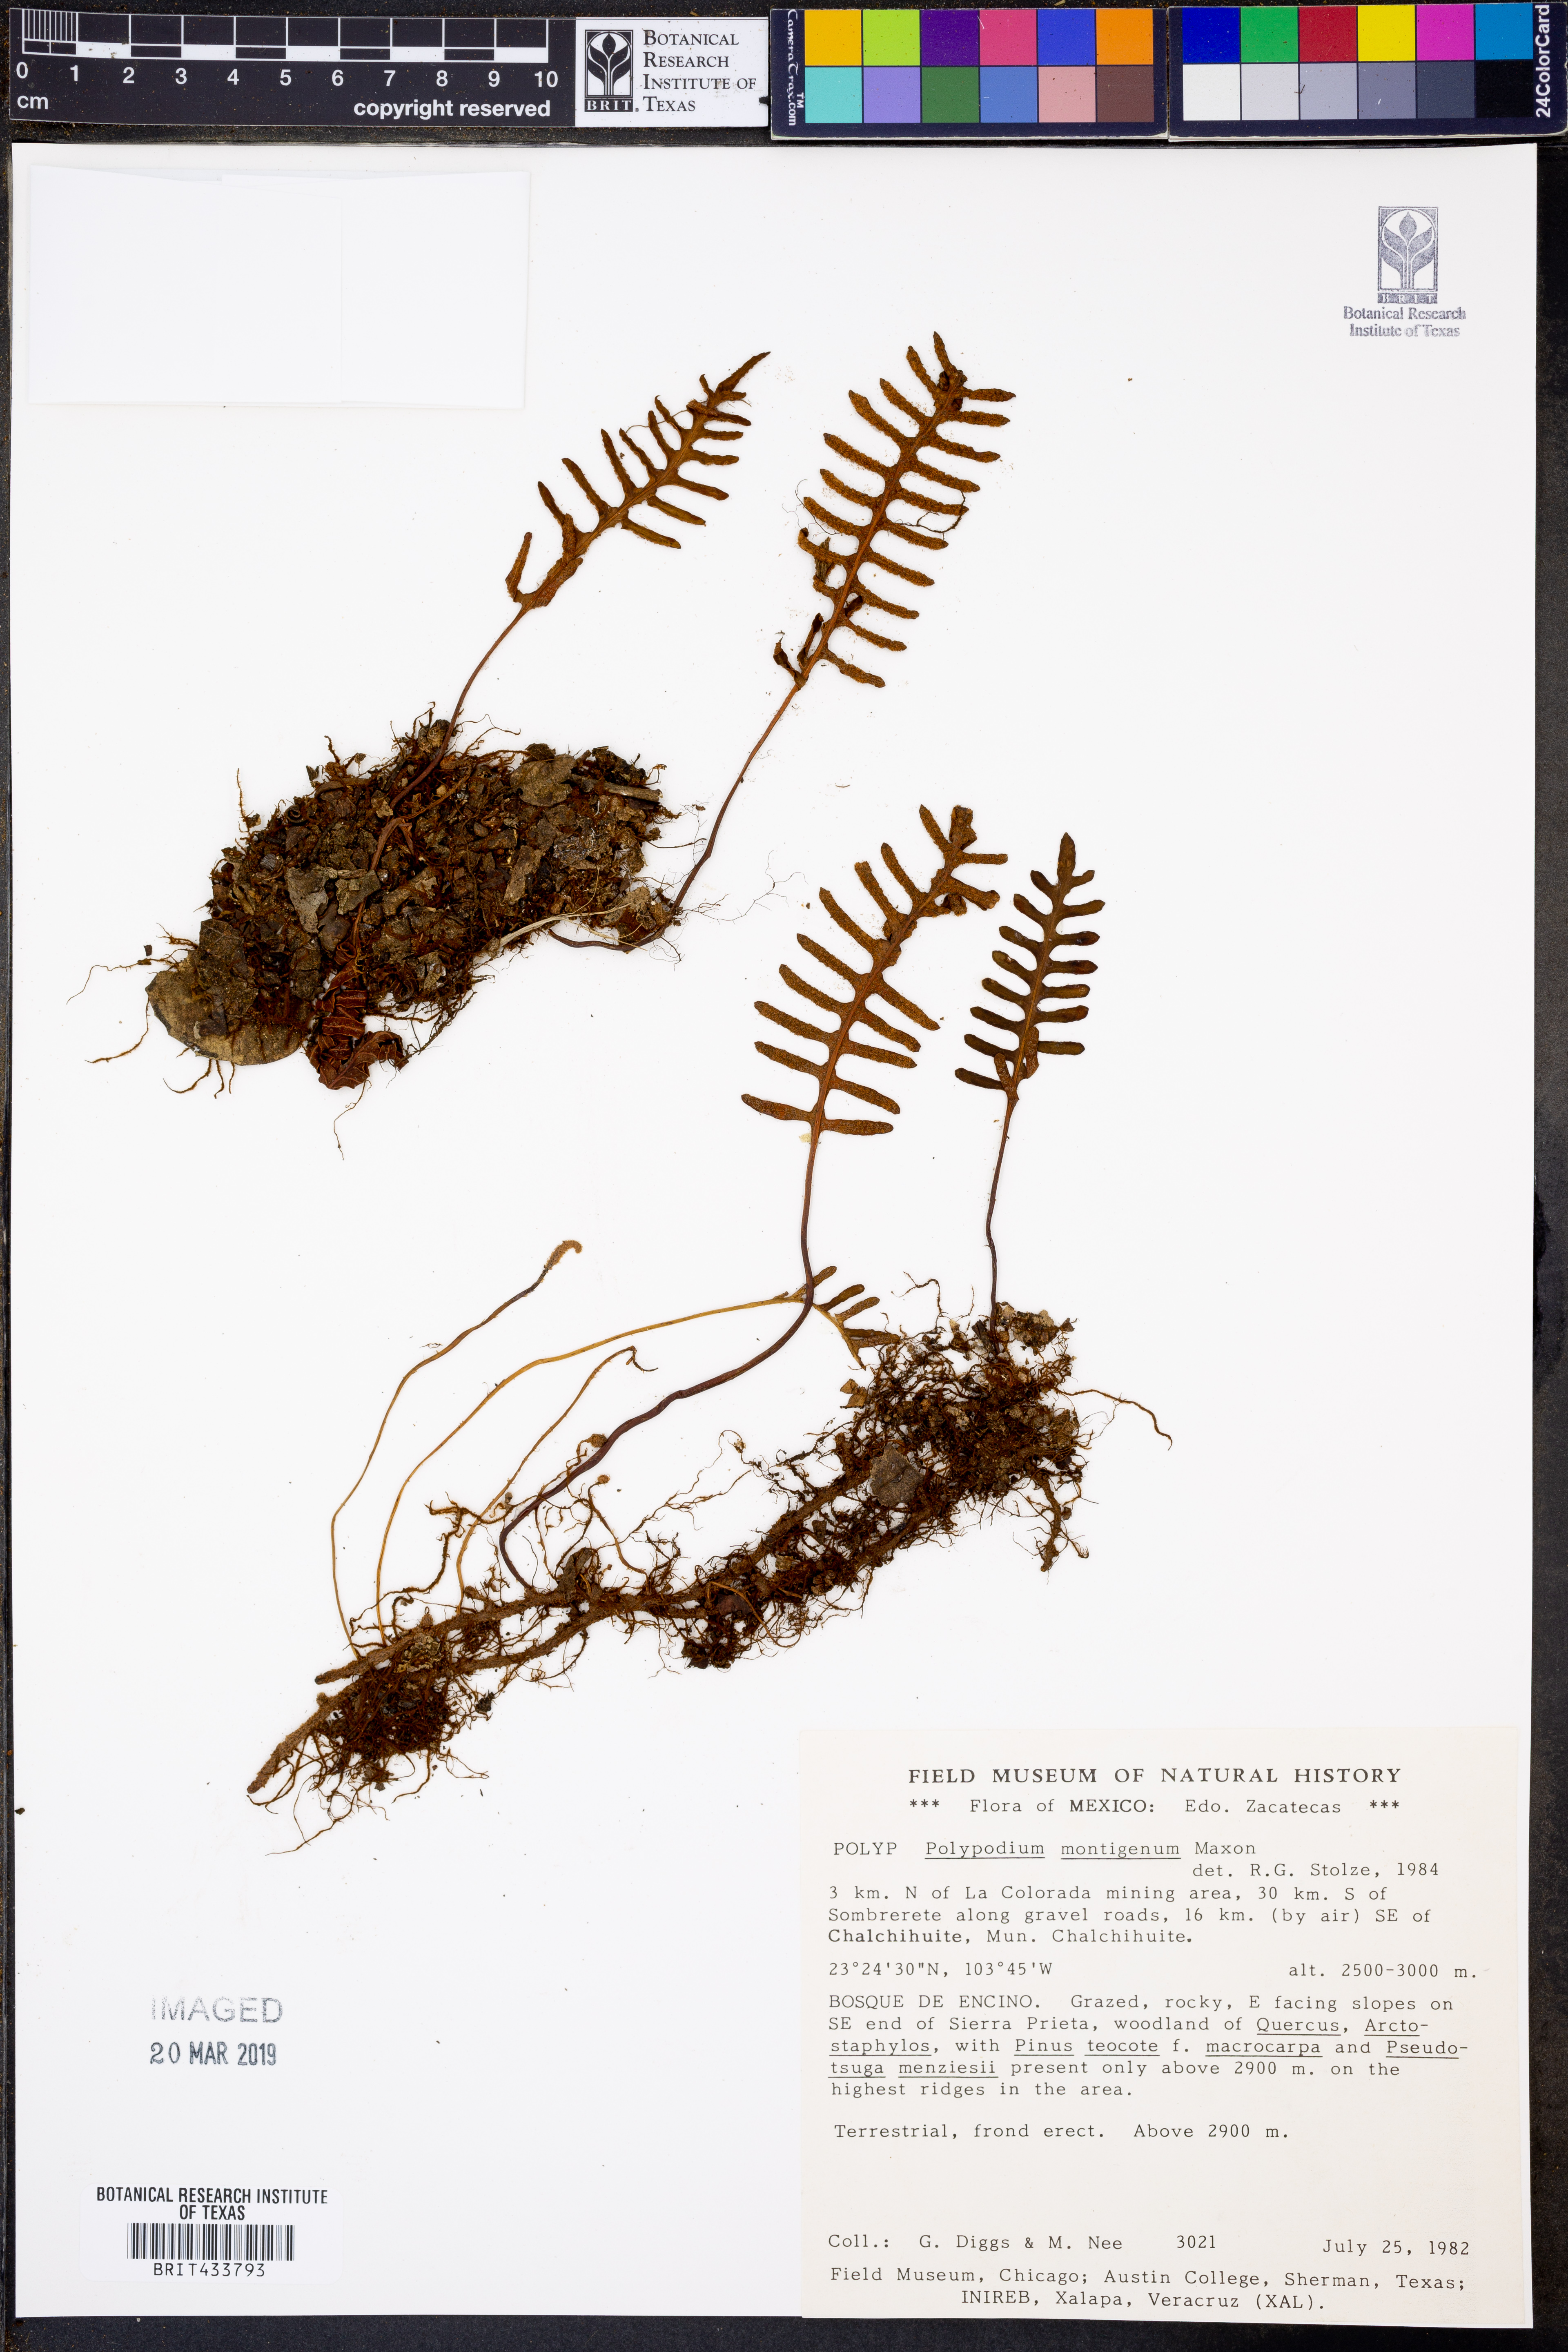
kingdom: Plantae
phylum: Tracheophyta
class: Polypodiopsida
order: Polypodiales
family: Polypodiaceae
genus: Pleopeltis
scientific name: Pleopeltis montigena
